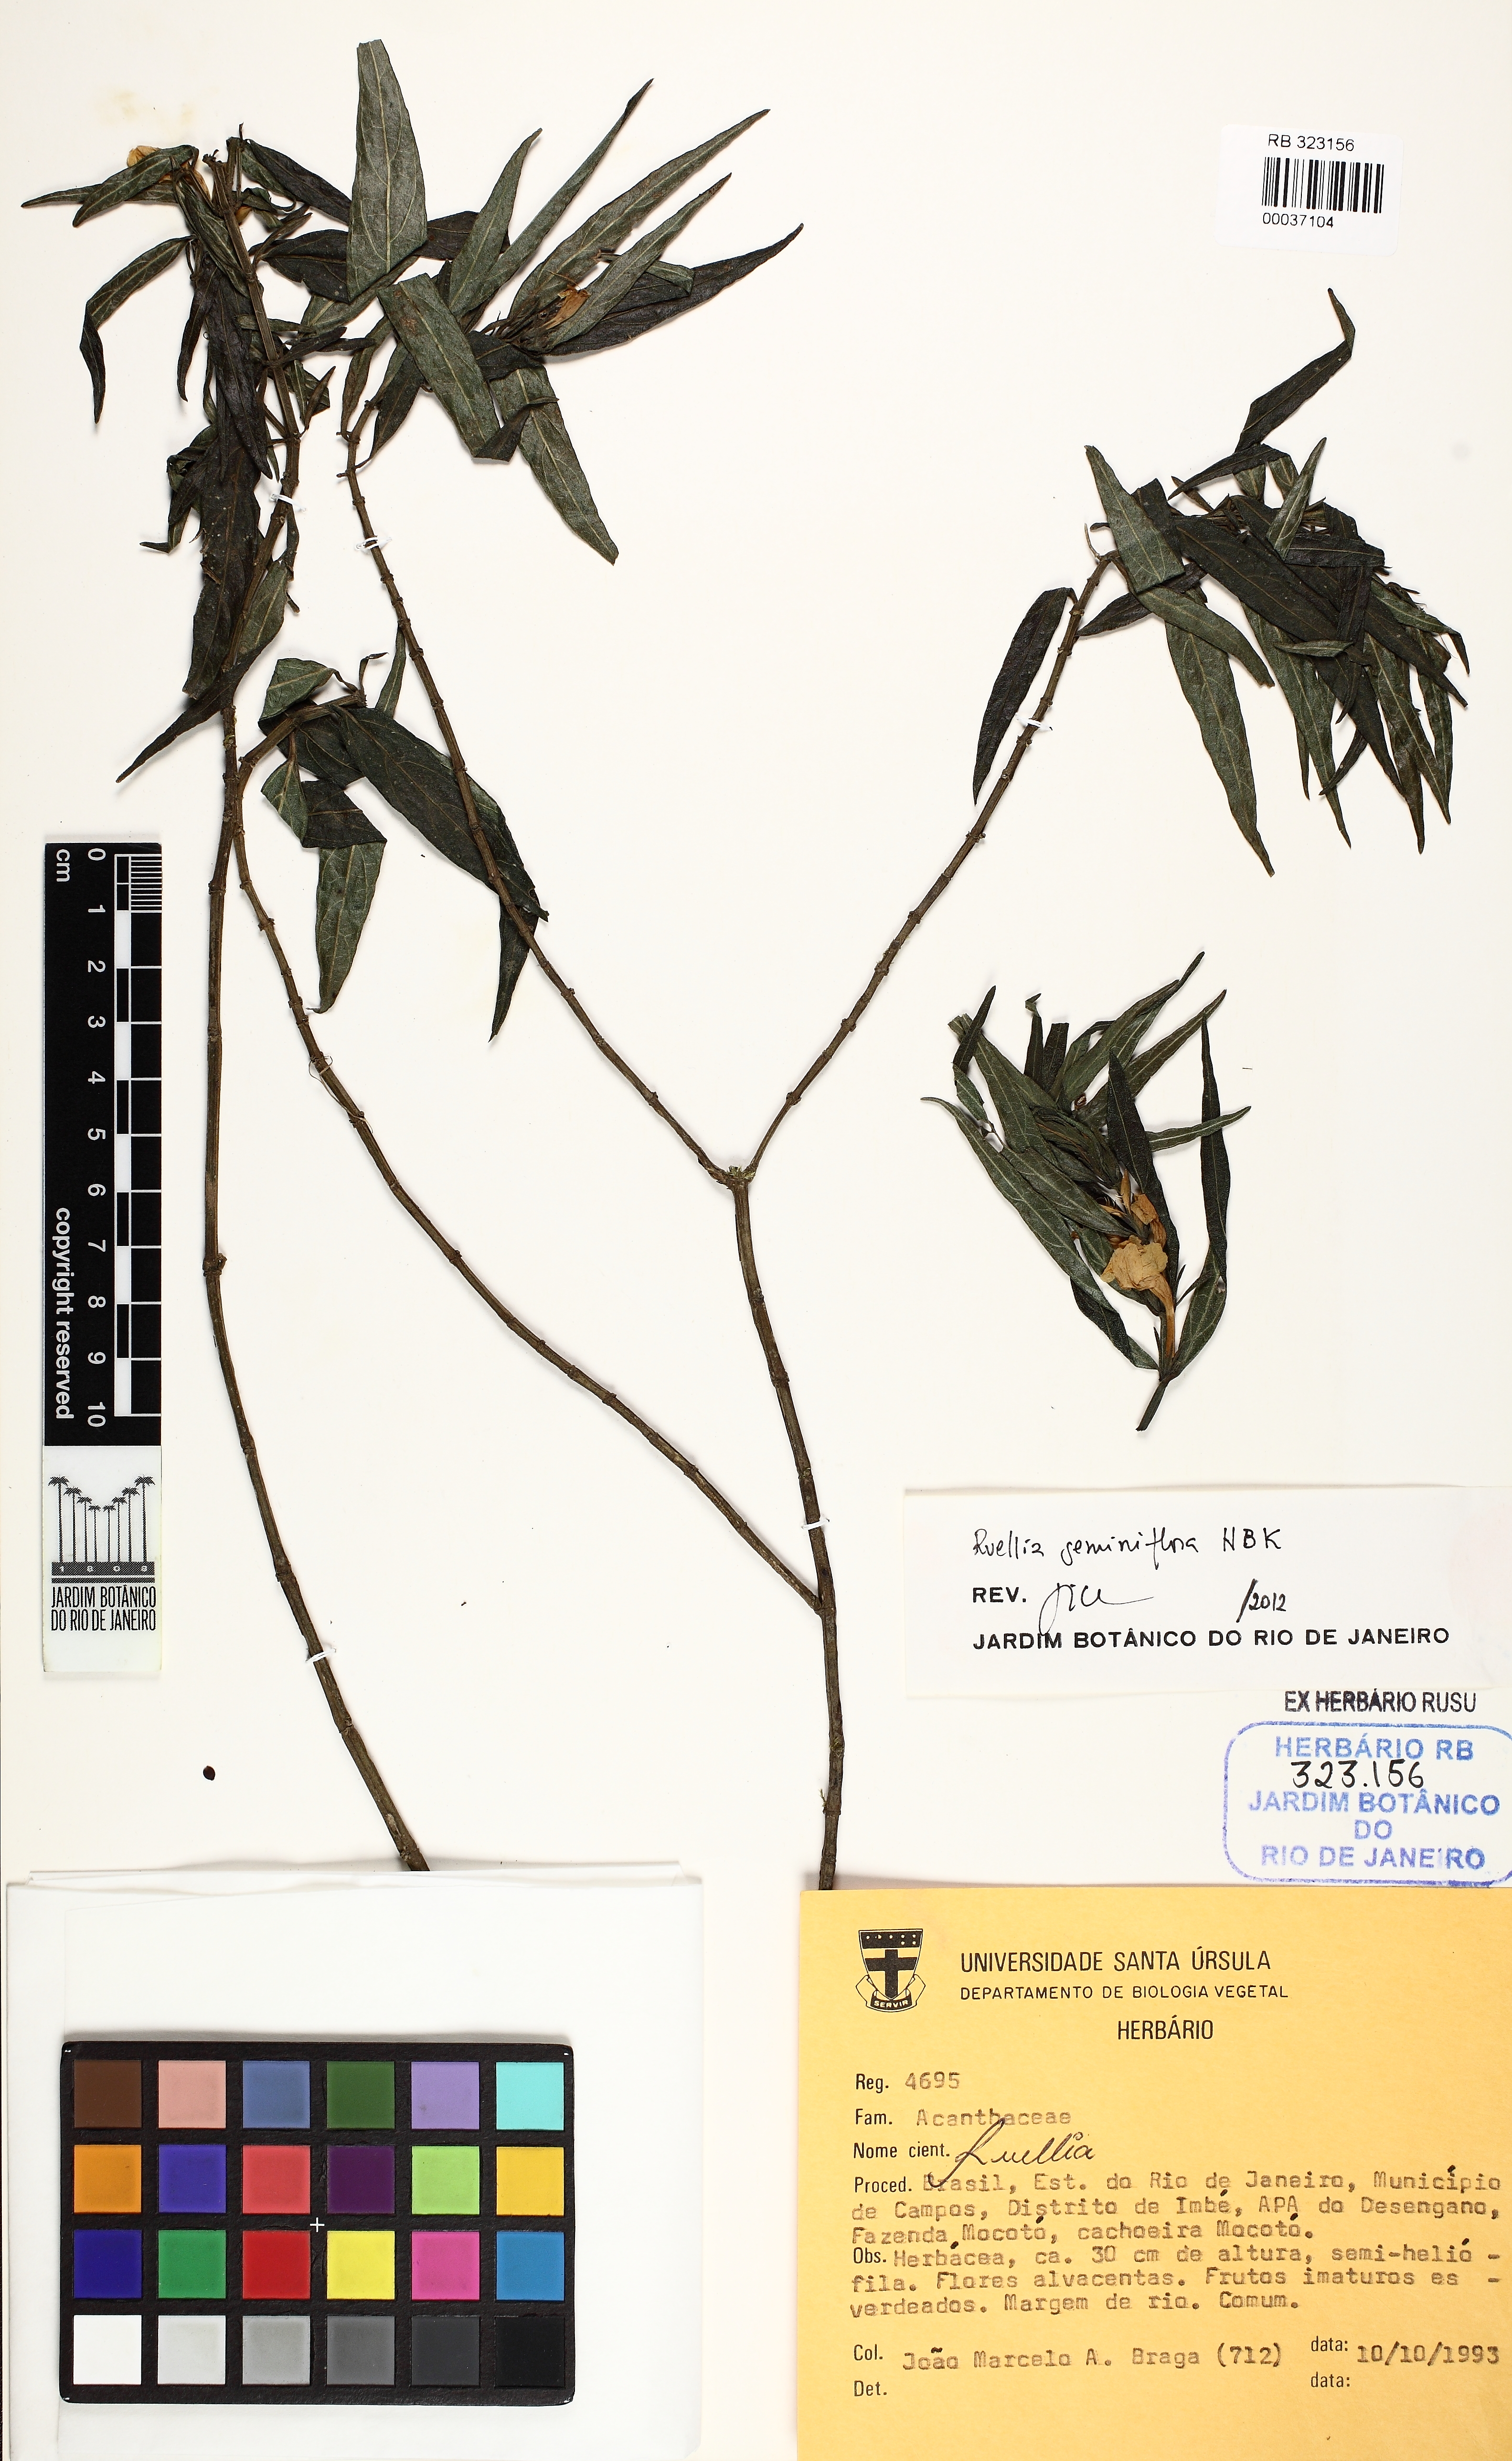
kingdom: Plantae
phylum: Tracheophyta
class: Magnoliopsida
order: Lamiales
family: Acanthaceae
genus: Ruellia
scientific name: Ruellia geminiflora
